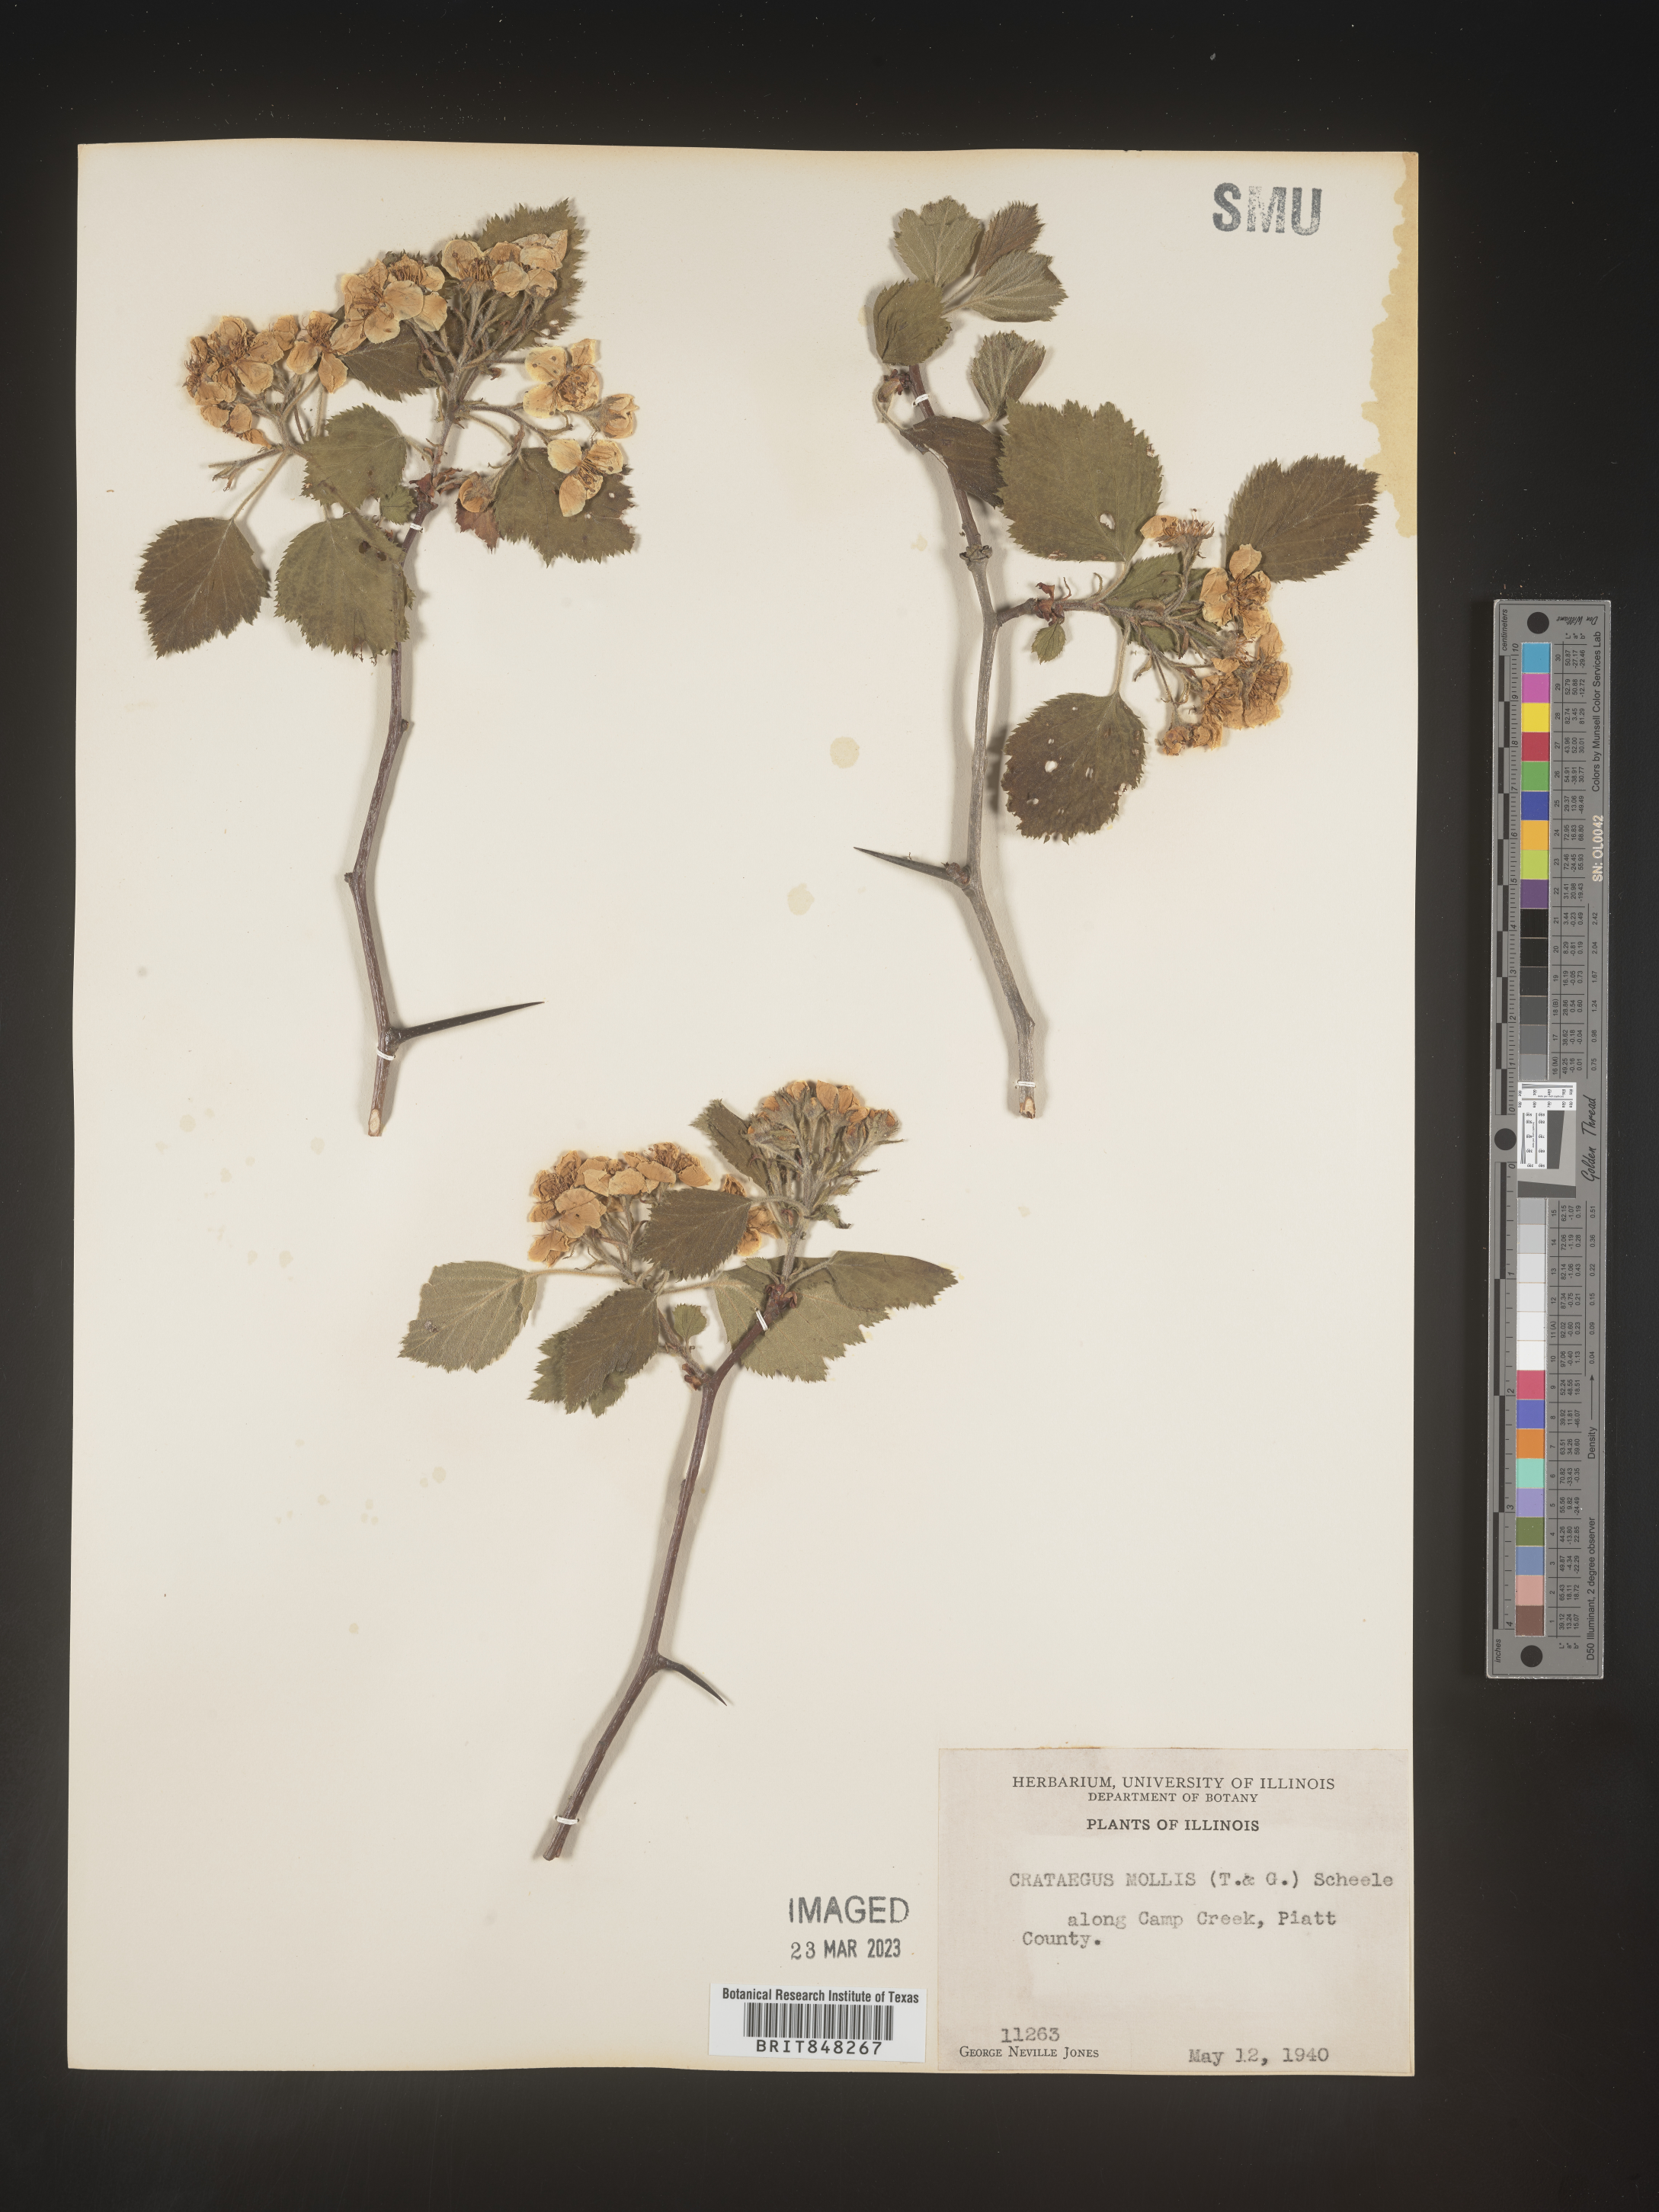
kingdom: Plantae
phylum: Tracheophyta
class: Magnoliopsida
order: Rosales
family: Rosaceae
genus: Crataegus
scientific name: Crataegus mollis
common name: Downy hawthorn
